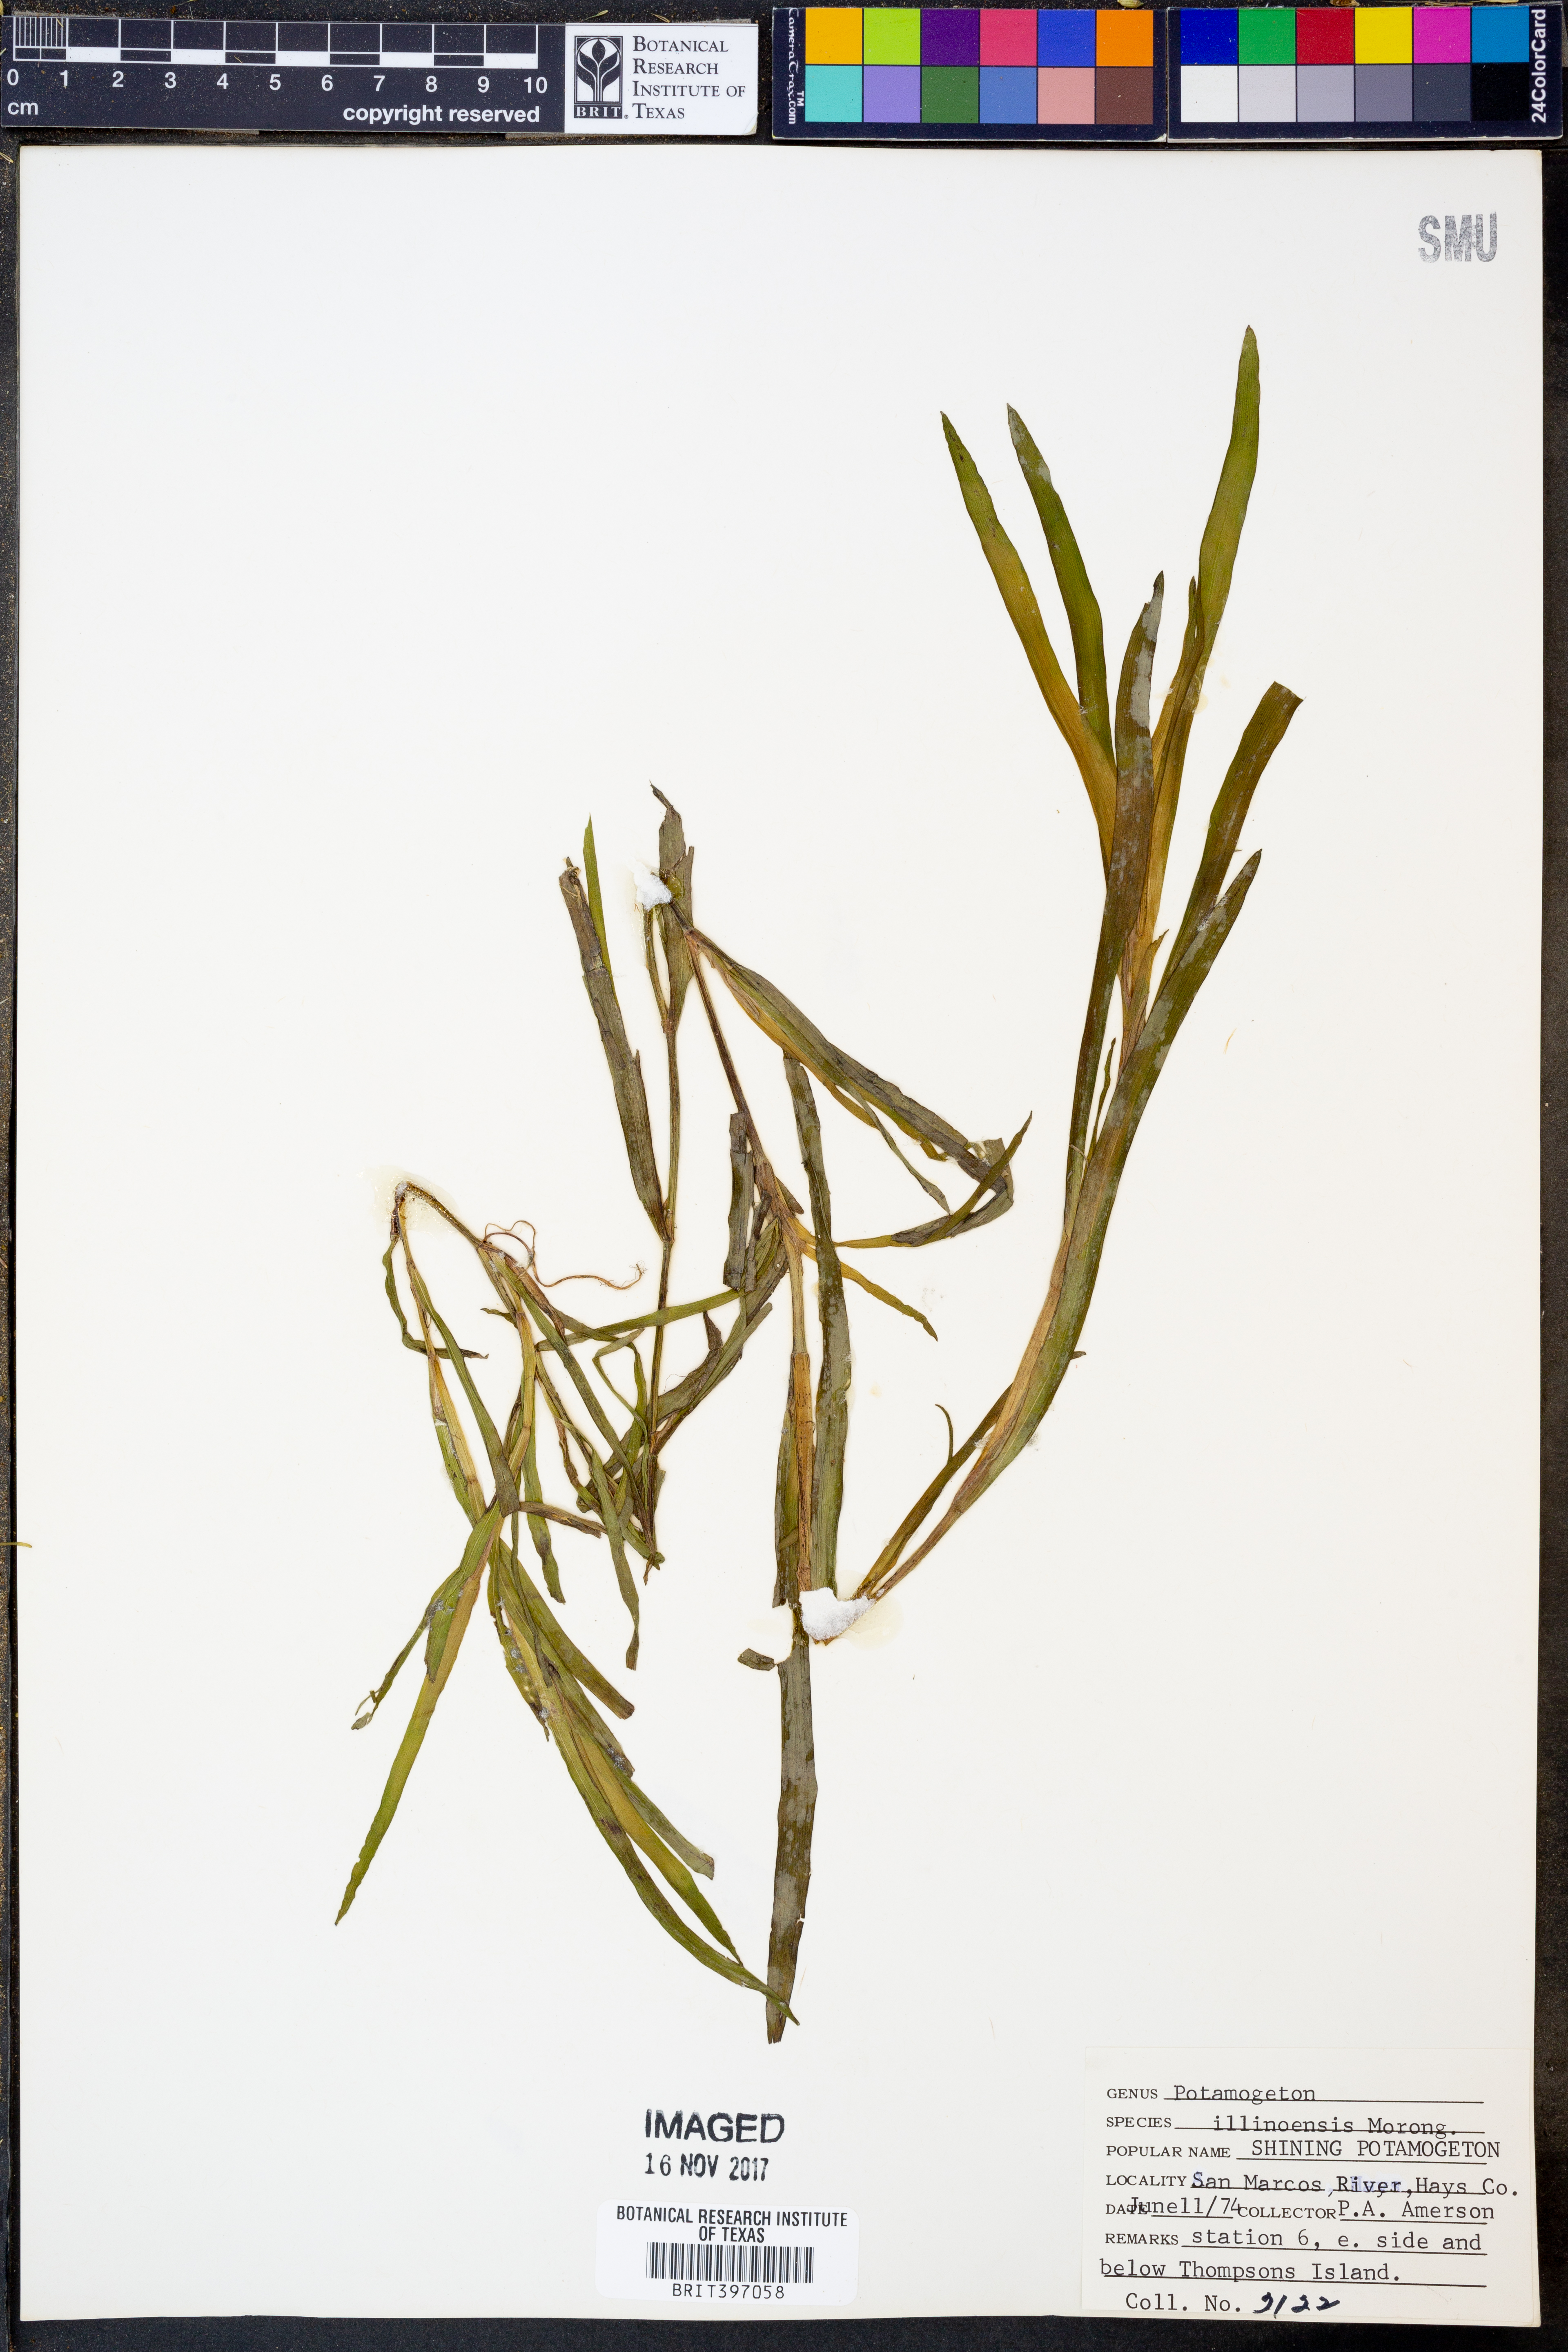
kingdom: Plantae
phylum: Tracheophyta
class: Liliopsida
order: Commelinales
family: Pontederiaceae
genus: Heteranthera
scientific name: Heteranthera dubia
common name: Grass-leaved mud plantain
